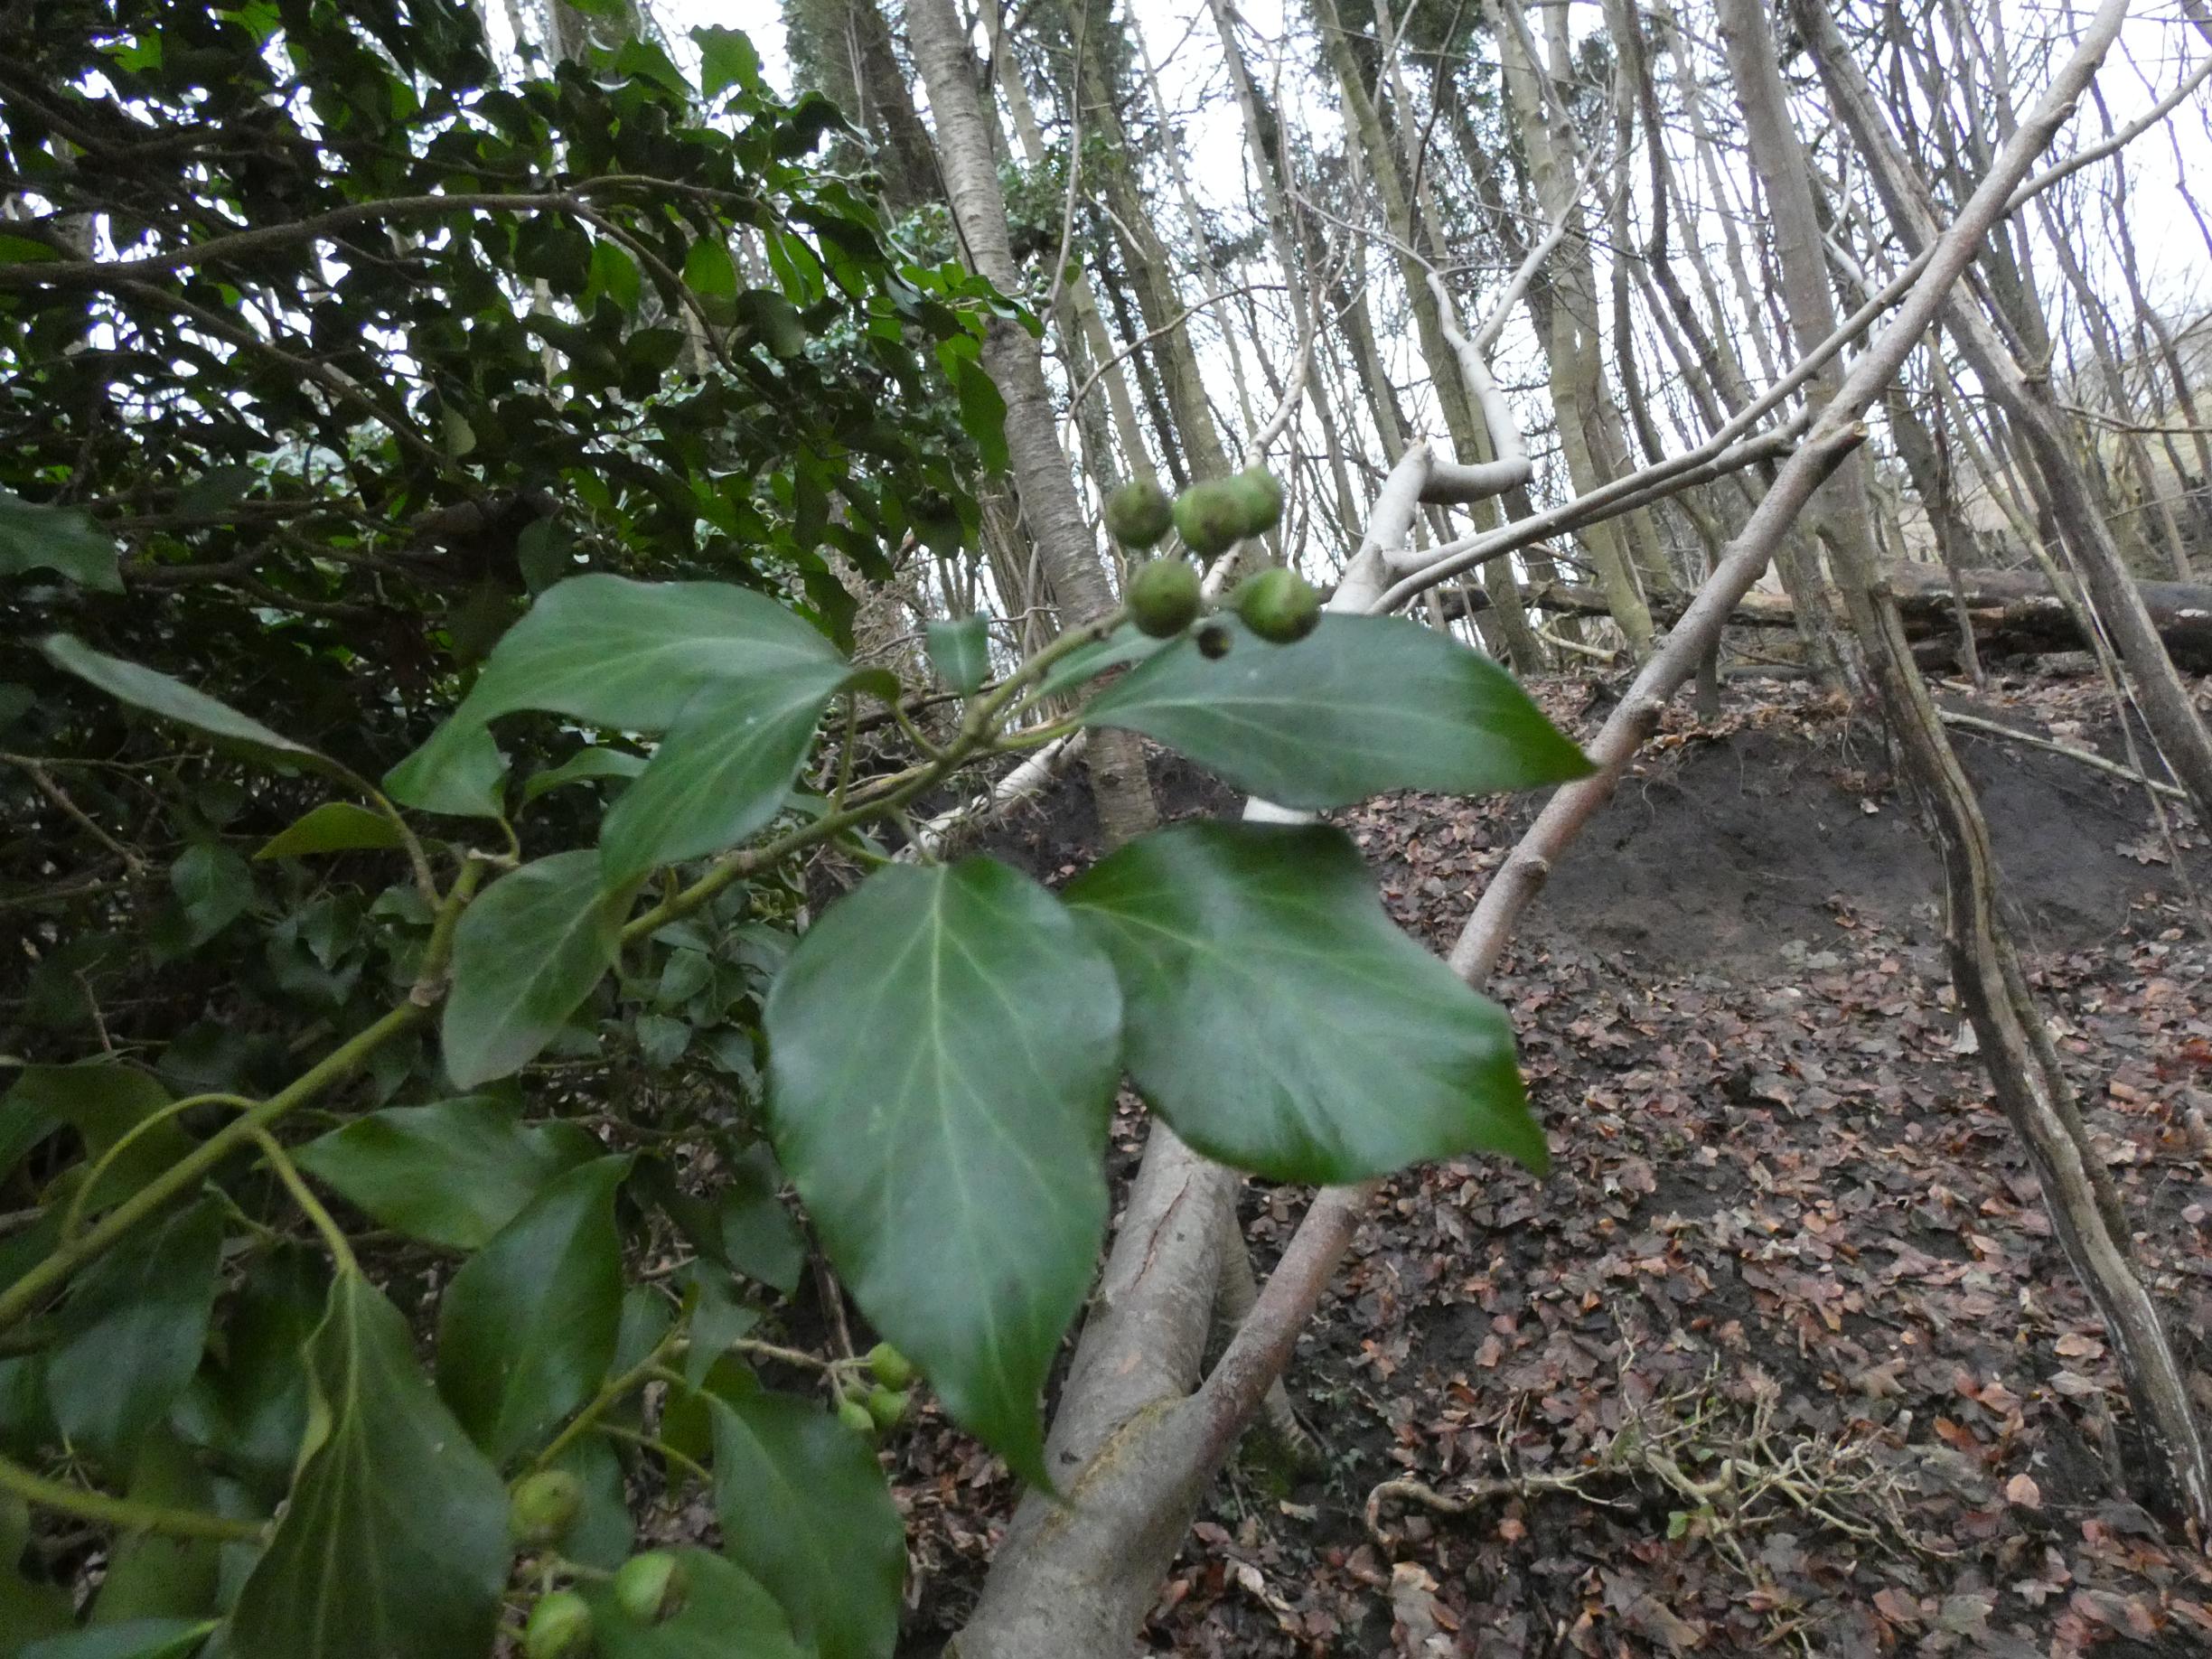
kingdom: Plantae
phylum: Tracheophyta
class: Magnoliopsida
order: Apiales
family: Araliaceae
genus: Hedera
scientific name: Hedera helix
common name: Vedbend
